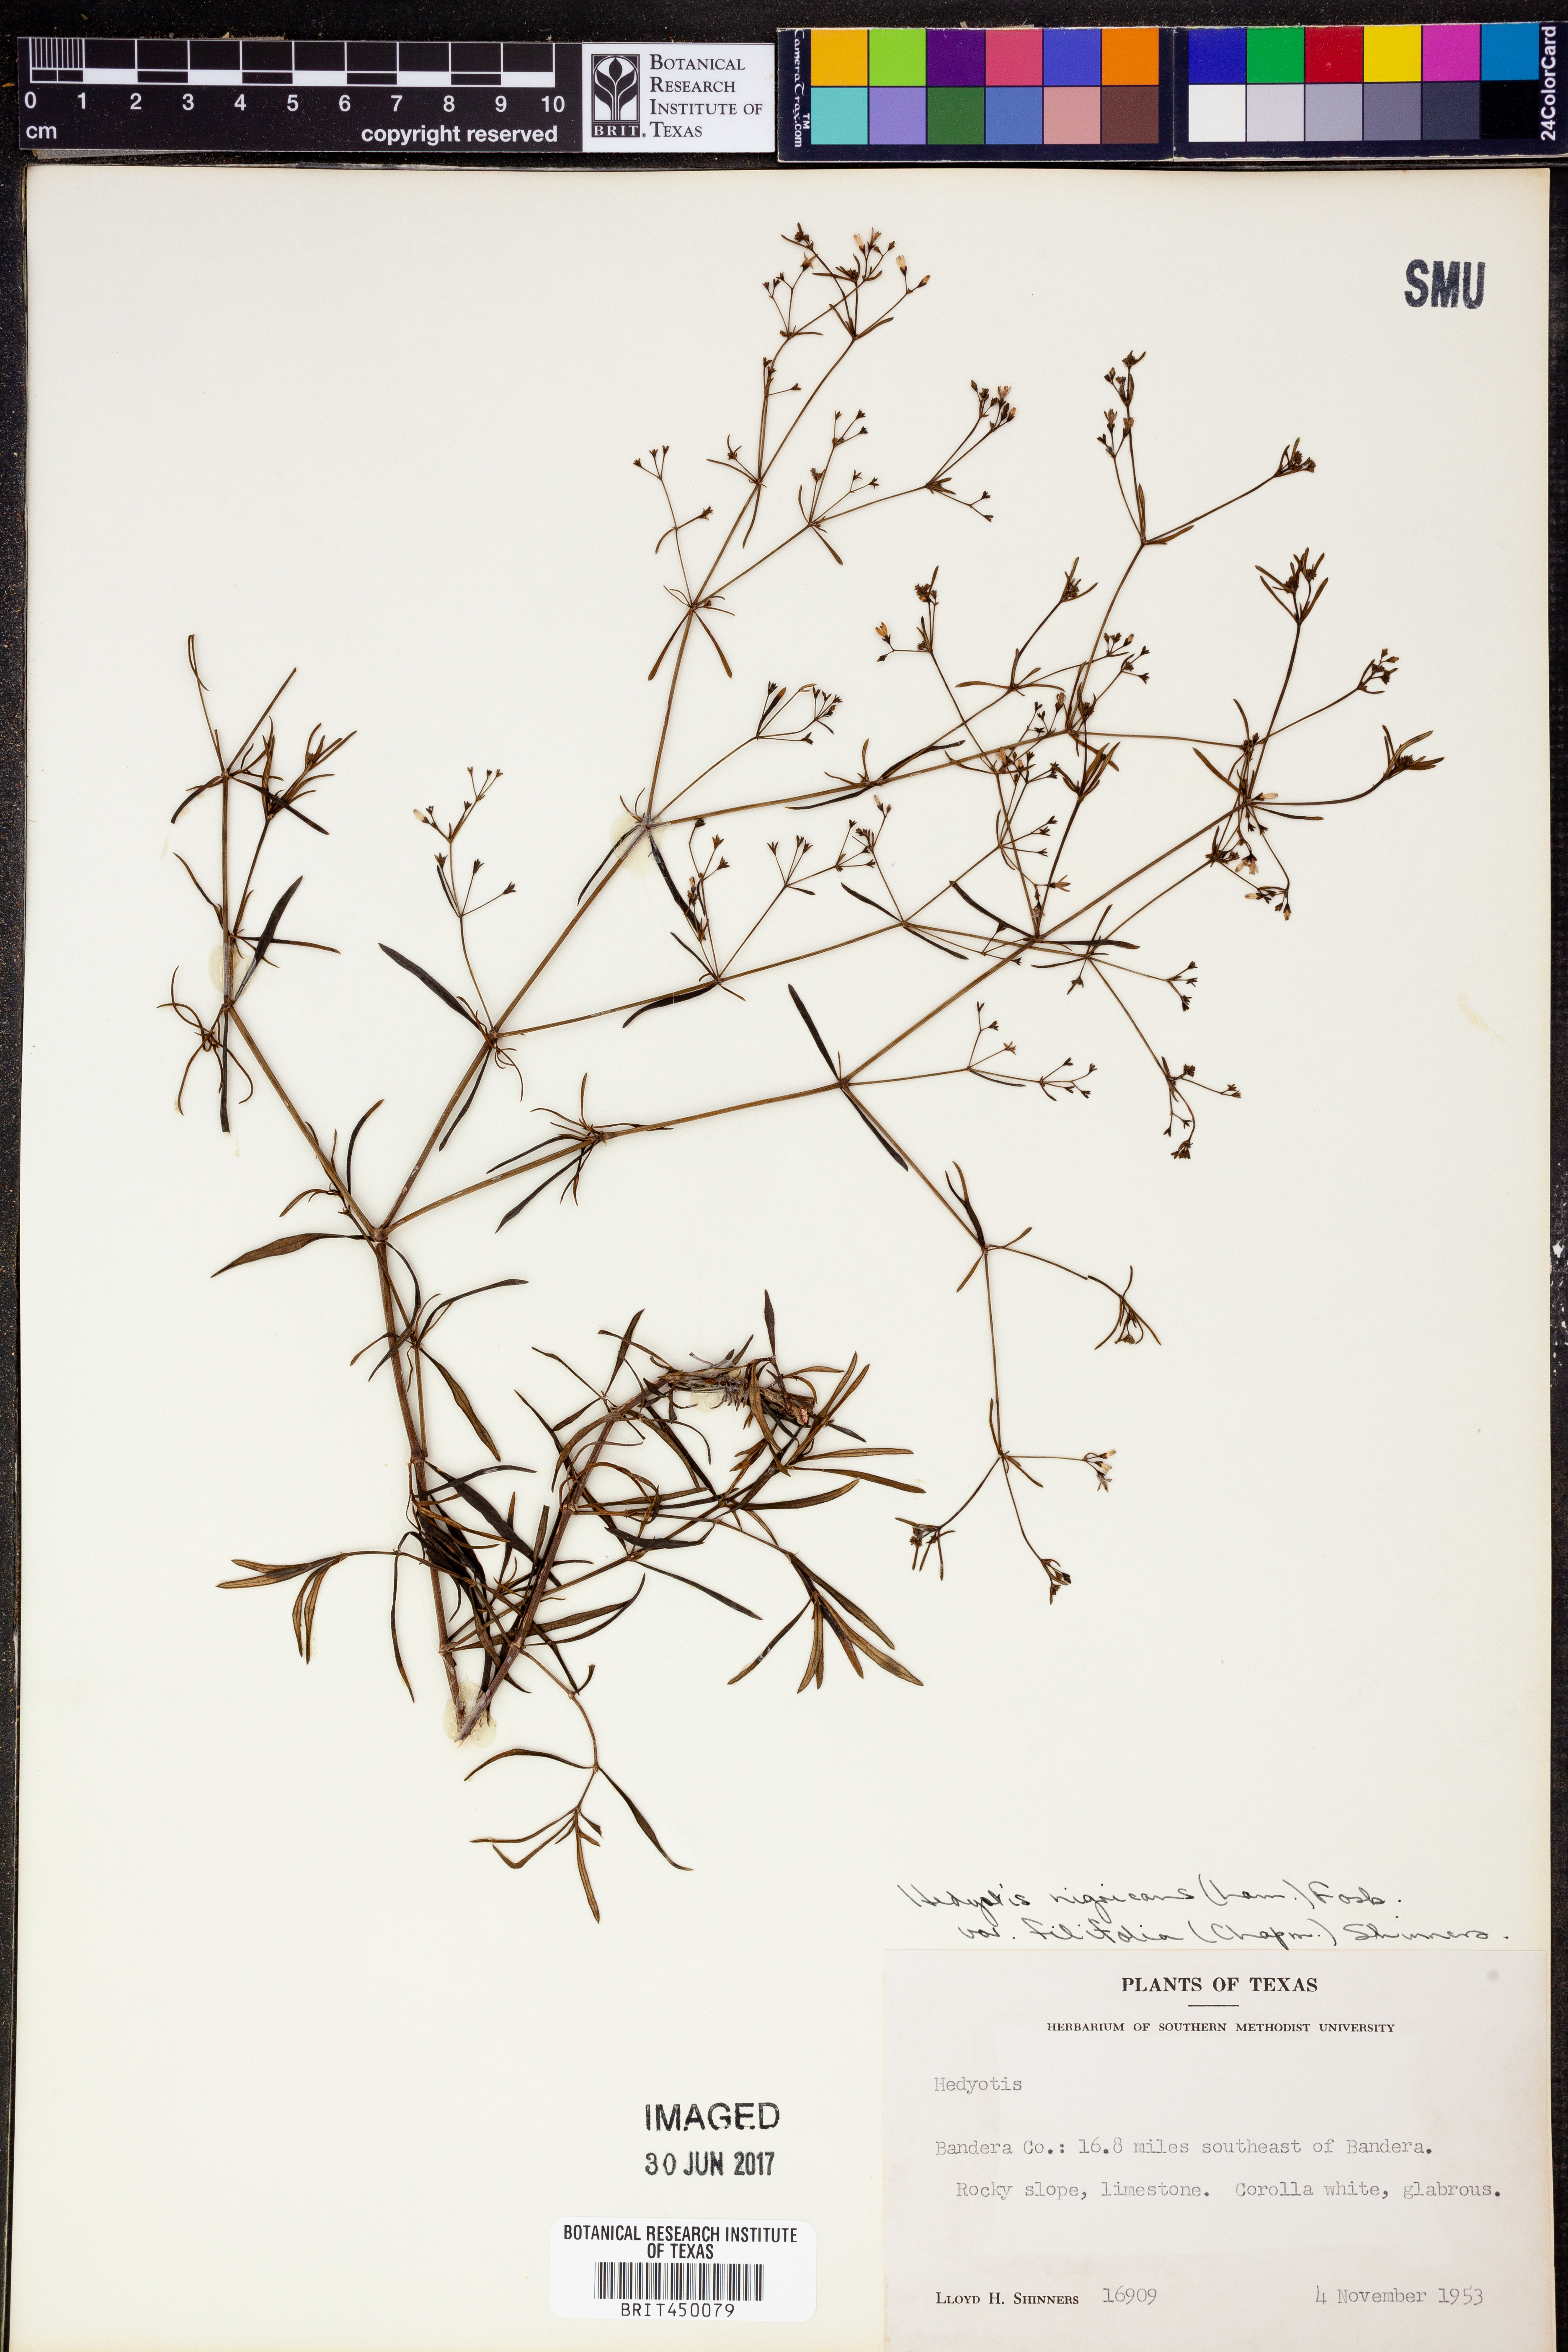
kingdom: Plantae
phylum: Tracheophyta
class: Magnoliopsida
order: Gentianales
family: Rubiaceae
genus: Stenaria
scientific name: Stenaria nigricans
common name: Diamondflowers
